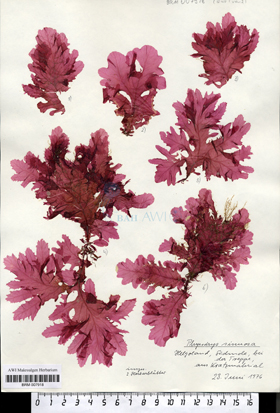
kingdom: Plantae
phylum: Rhodophyta
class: Florideophyceae
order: Ceramiales
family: Delesseriaceae
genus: Phycodrys
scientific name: Phycodrys rubens
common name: Sea oak
